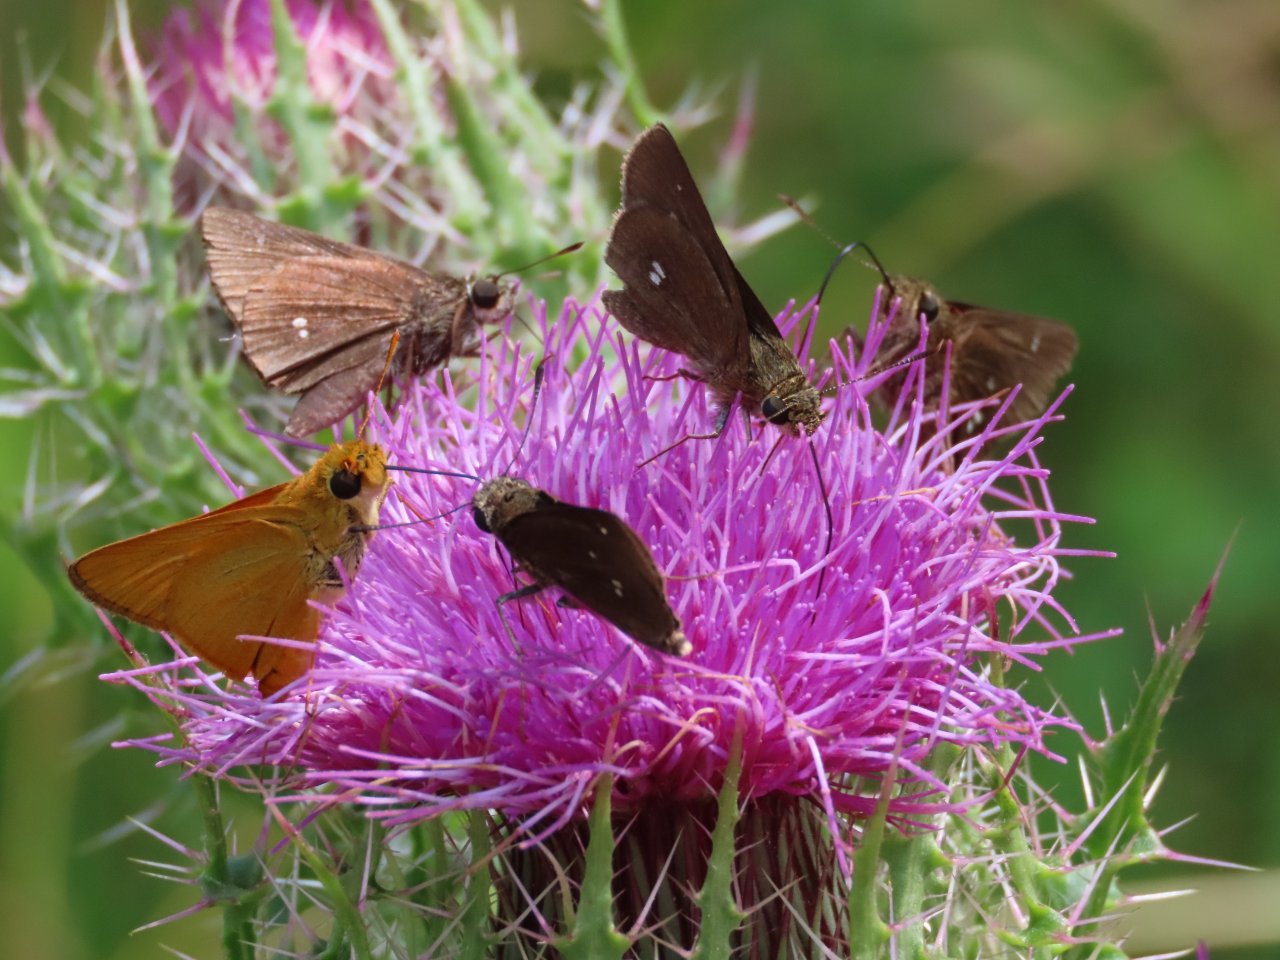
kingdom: Animalia
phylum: Arthropoda
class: Insecta
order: Lepidoptera
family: Hesperiidae
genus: Oligoria
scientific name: Oligoria maculata
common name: Twin-spot Skipper
